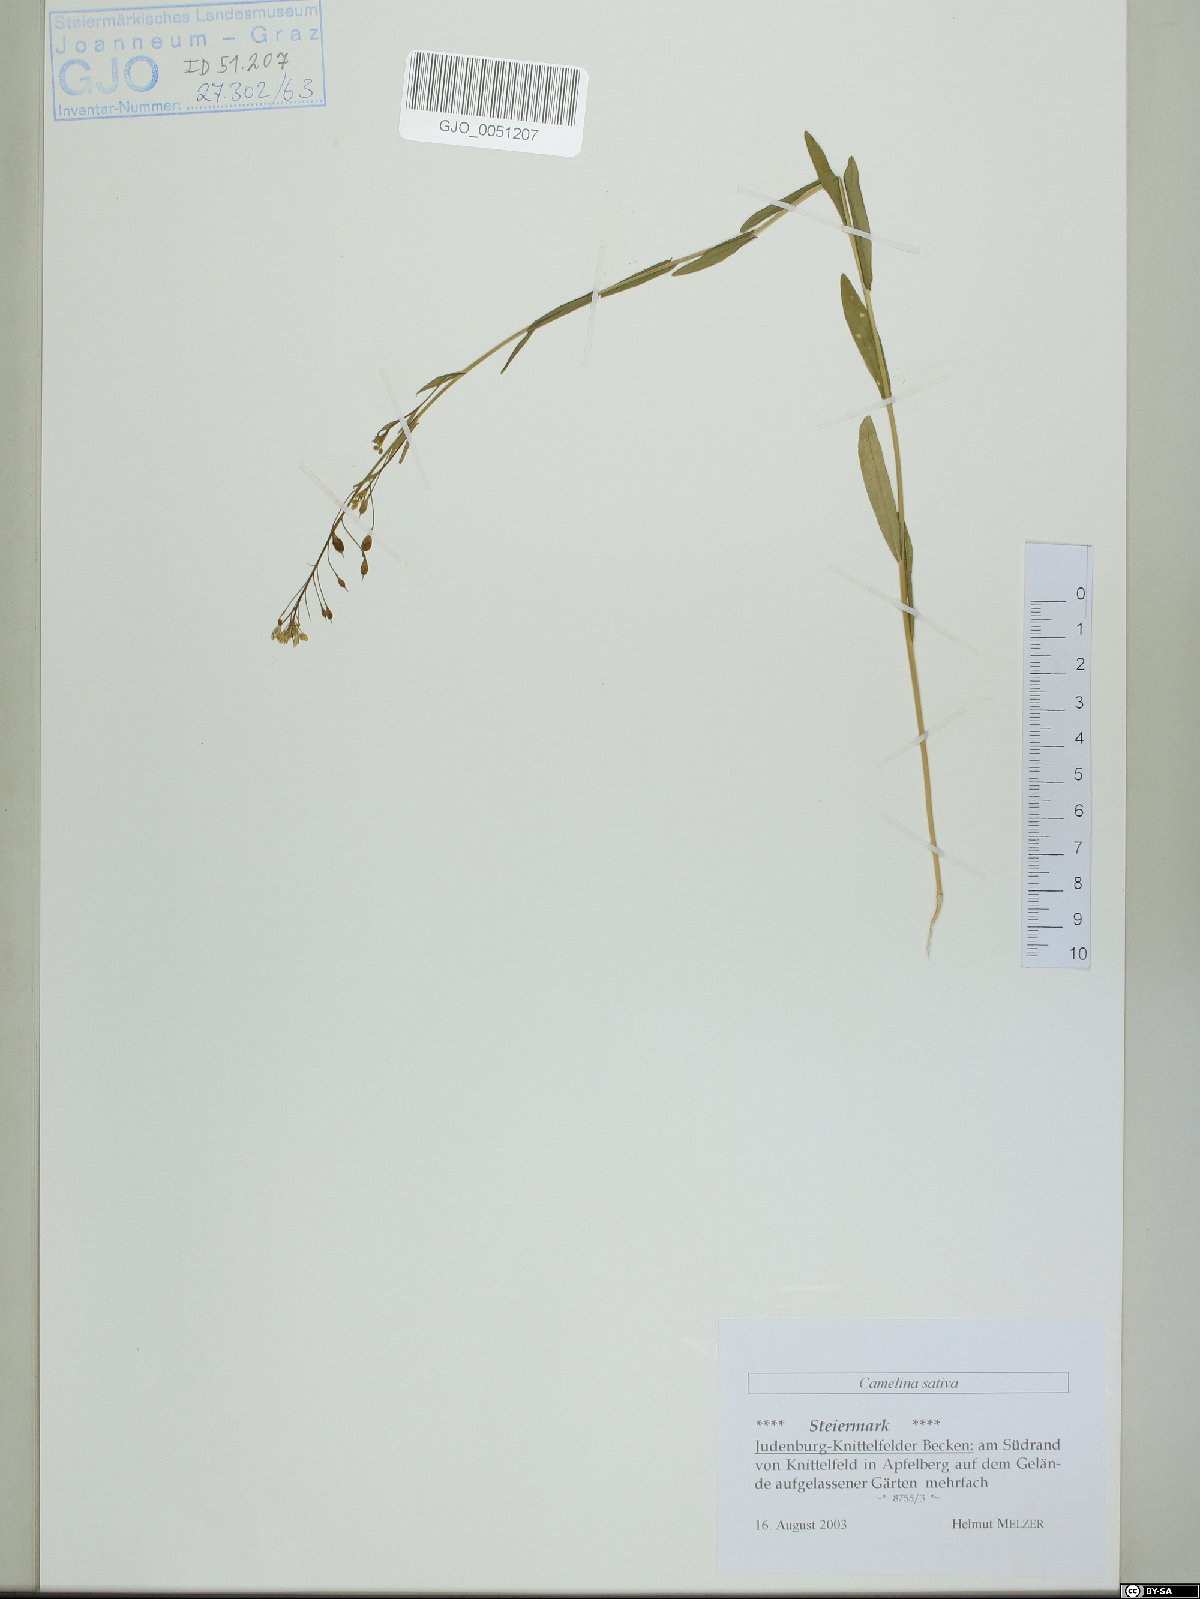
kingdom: Plantae
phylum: Tracheophyta
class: Magnoliopsida
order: Brassicales
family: Brassicaceae
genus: Camelina
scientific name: Camelina sativa
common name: Gold-of-pleasure
